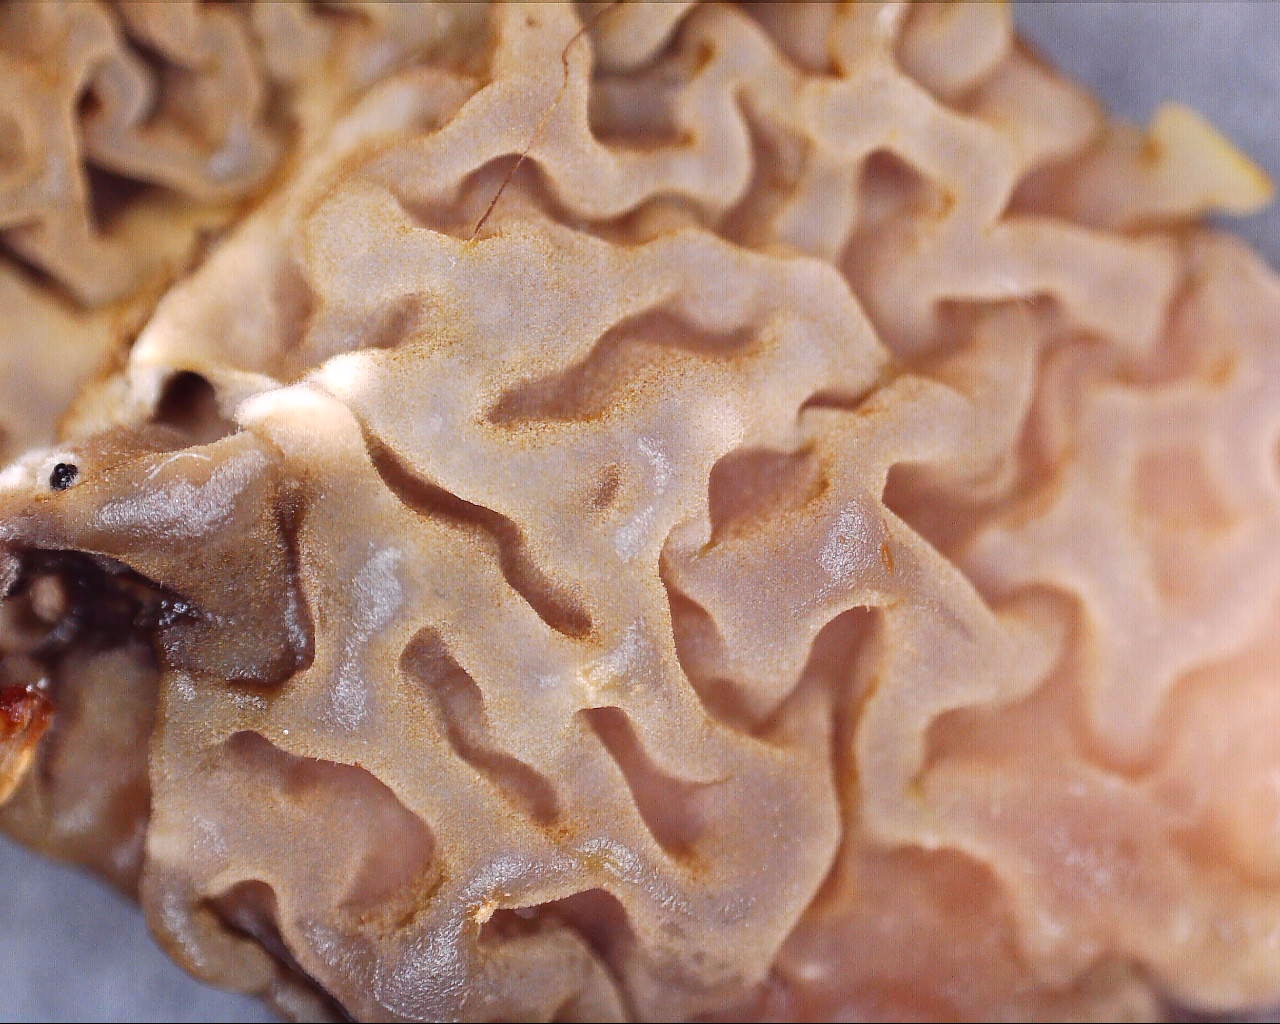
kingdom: Fungi
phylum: Basidiomycota
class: Agaricomycetes
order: Boletales
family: Serpulaceae
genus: Serpula
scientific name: Serpula himantioides
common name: tyndkødet hussvamp
